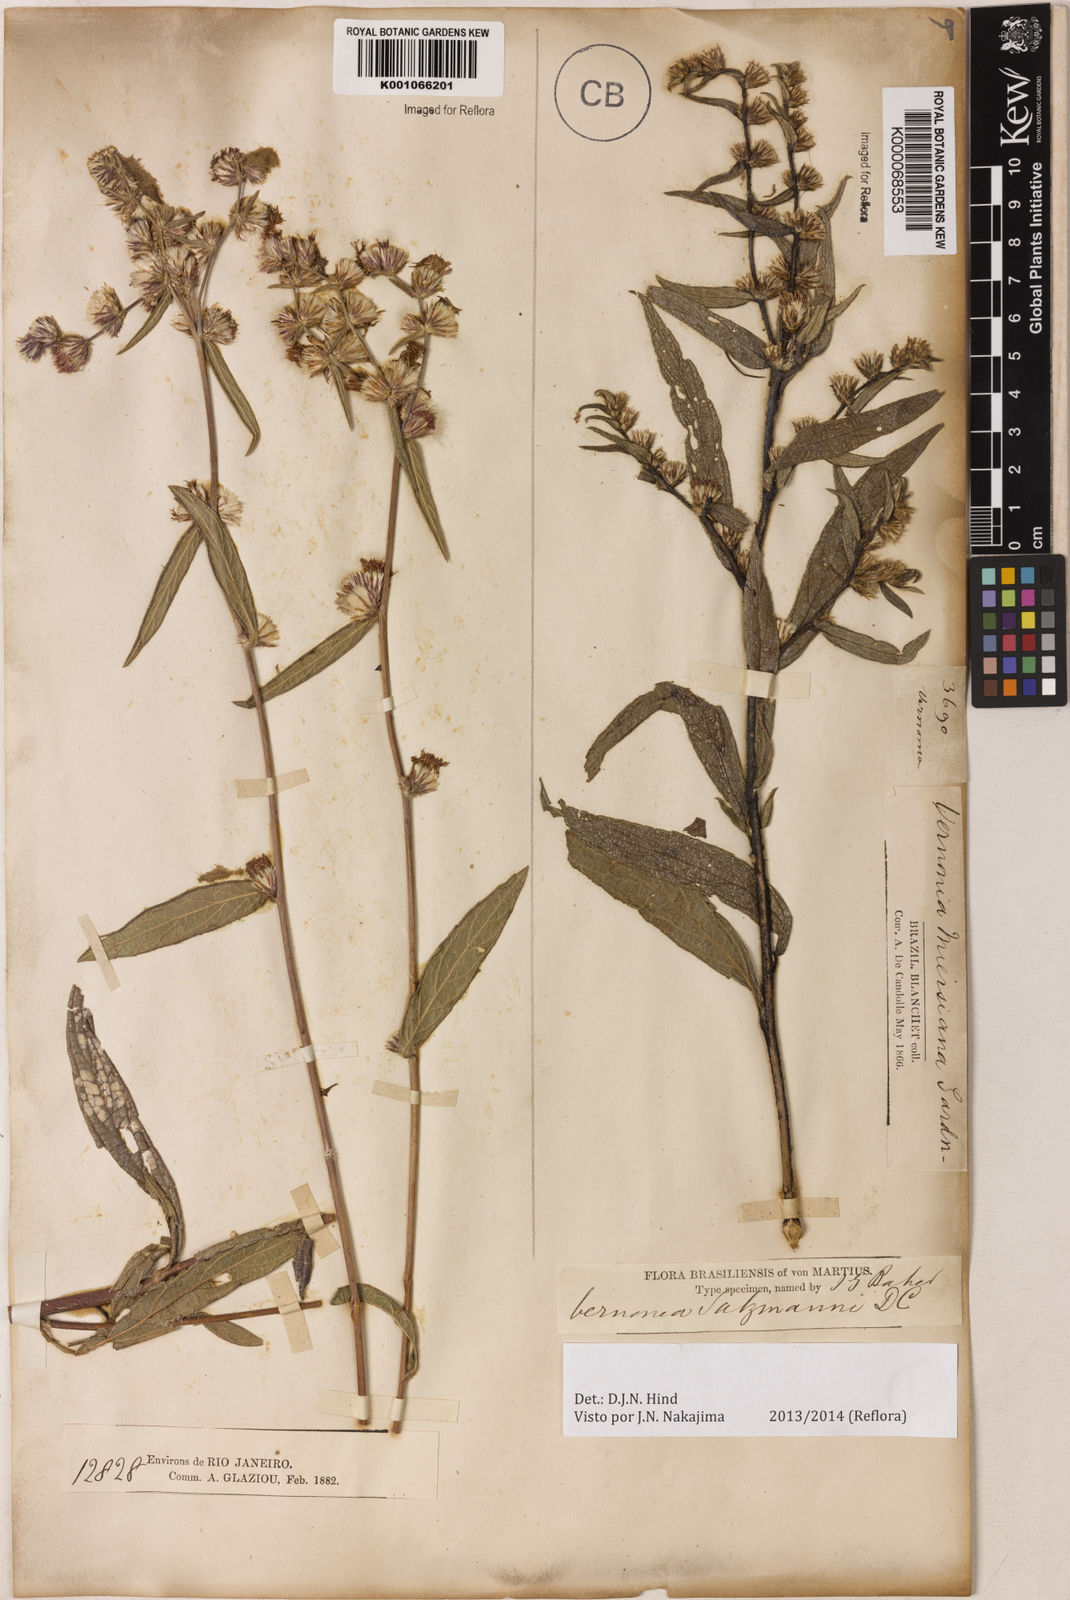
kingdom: Plantae
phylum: Tracheophyta
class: Magnoliopsida
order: Asterales
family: Asteraceae
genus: Lepidaploa
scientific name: Lepidaploa salzmannii
